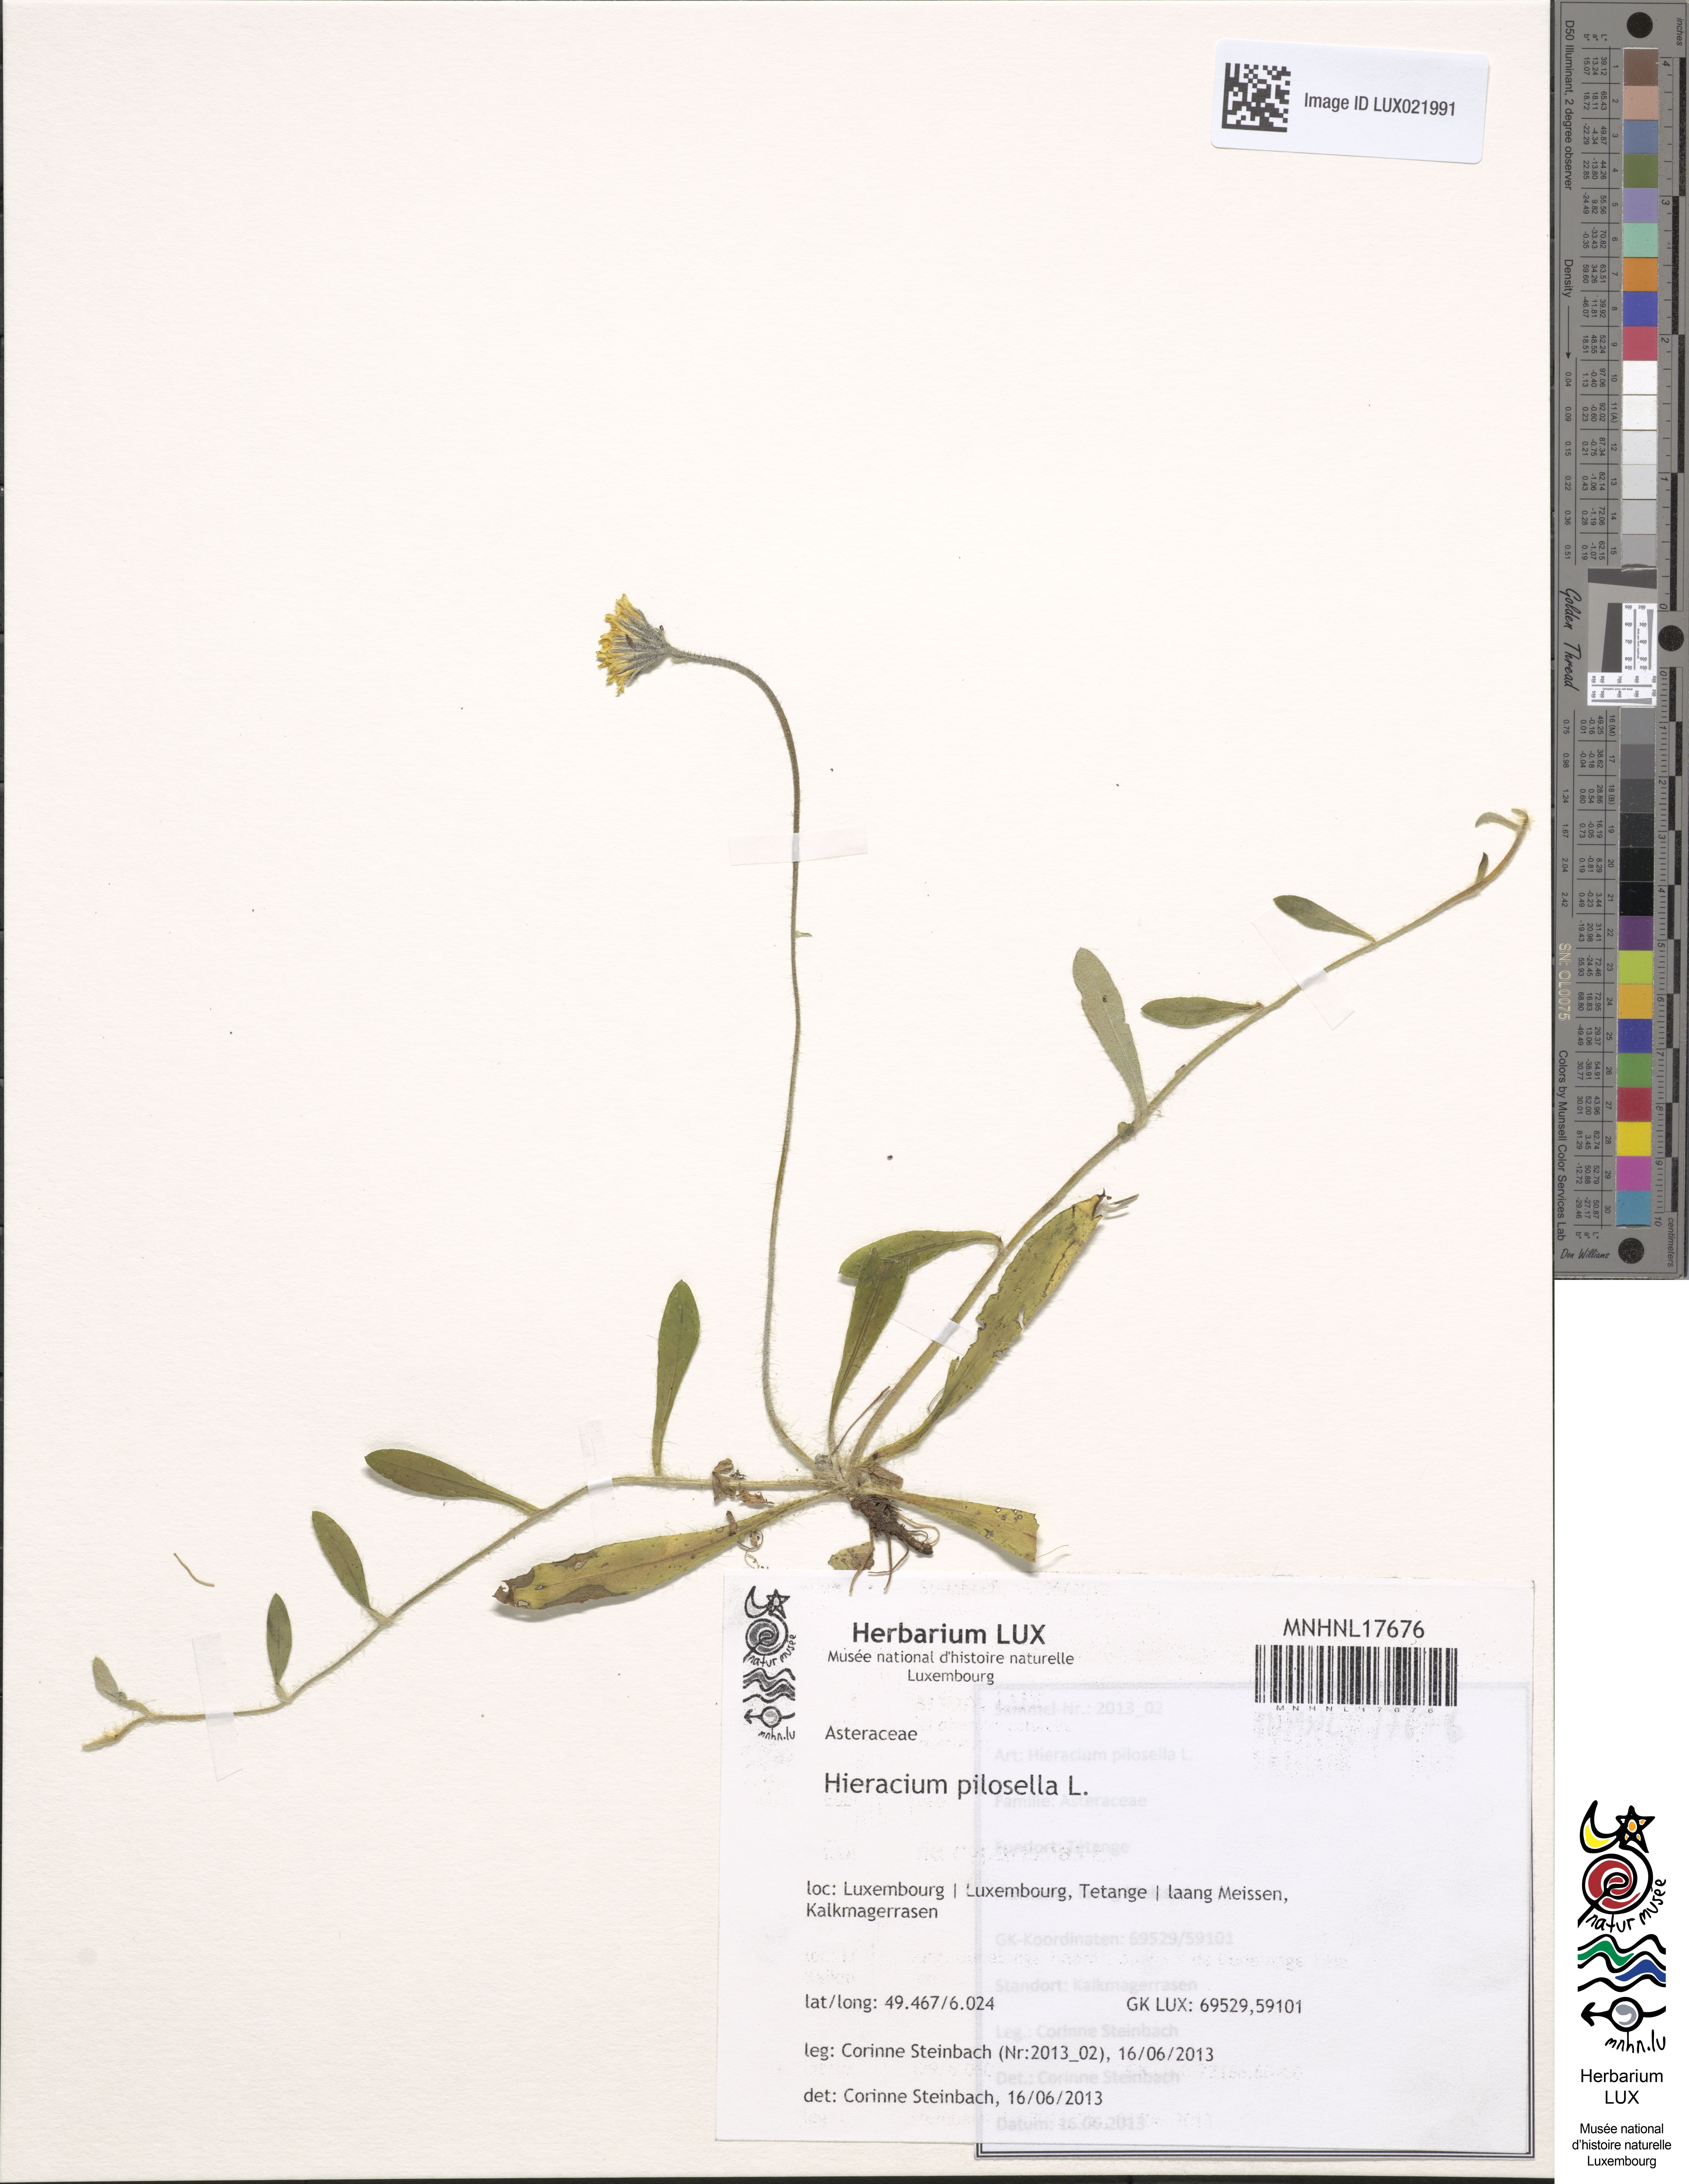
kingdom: Plantae
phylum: Tracheophyta
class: Magnoliopsida
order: Asterales
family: Asteraceae
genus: Pilosella
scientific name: Pilosella officinarum
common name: Mouse-ear hawkweed
